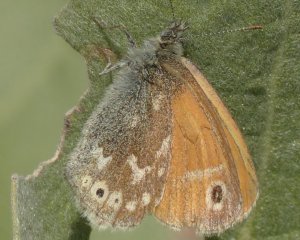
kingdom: Animalia
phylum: Arthropoda
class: Insecta
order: Lepidoptera
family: Nymphalidae
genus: Coenonympha
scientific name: Coenonympha tullia
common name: Large Heath
